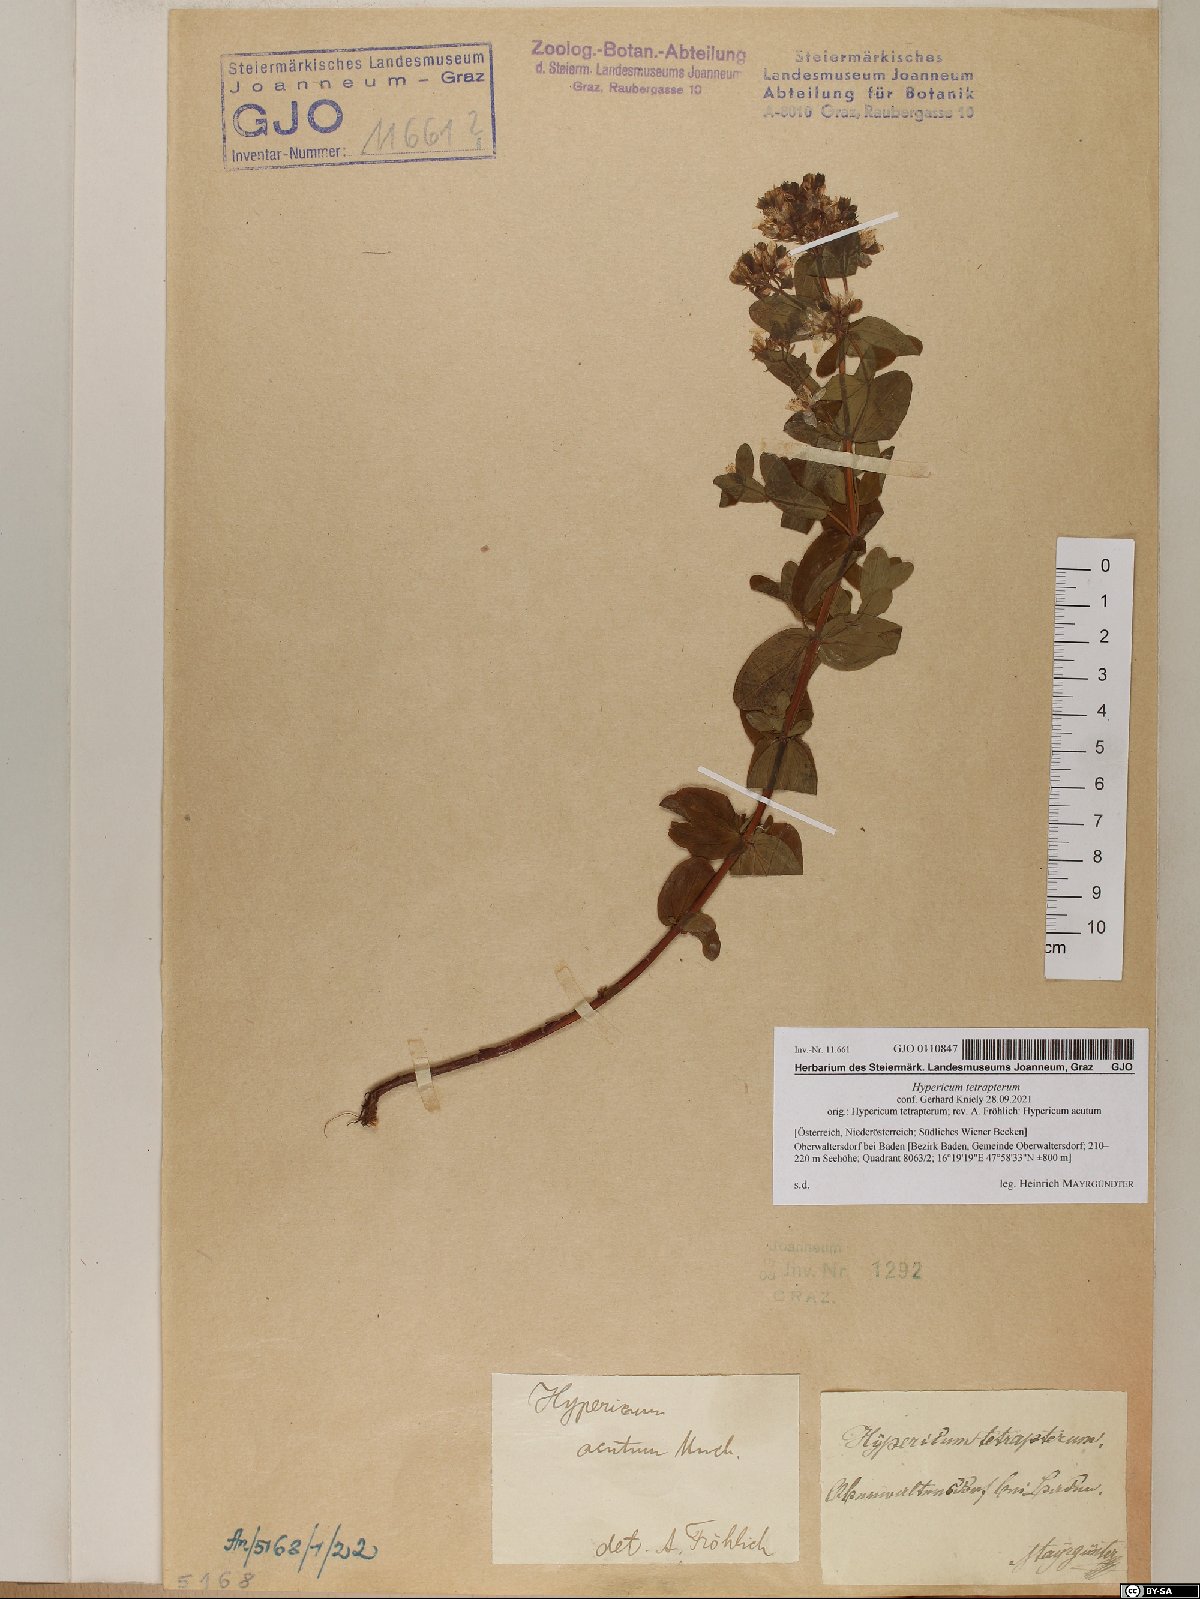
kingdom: Plantae
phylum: Tracheophyta
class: Magnoliopsida
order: Malpighiales
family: Hypericaceae
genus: Hypericum
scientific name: Hypericum tetrapterum
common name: Square-stalked st. john's-wort
